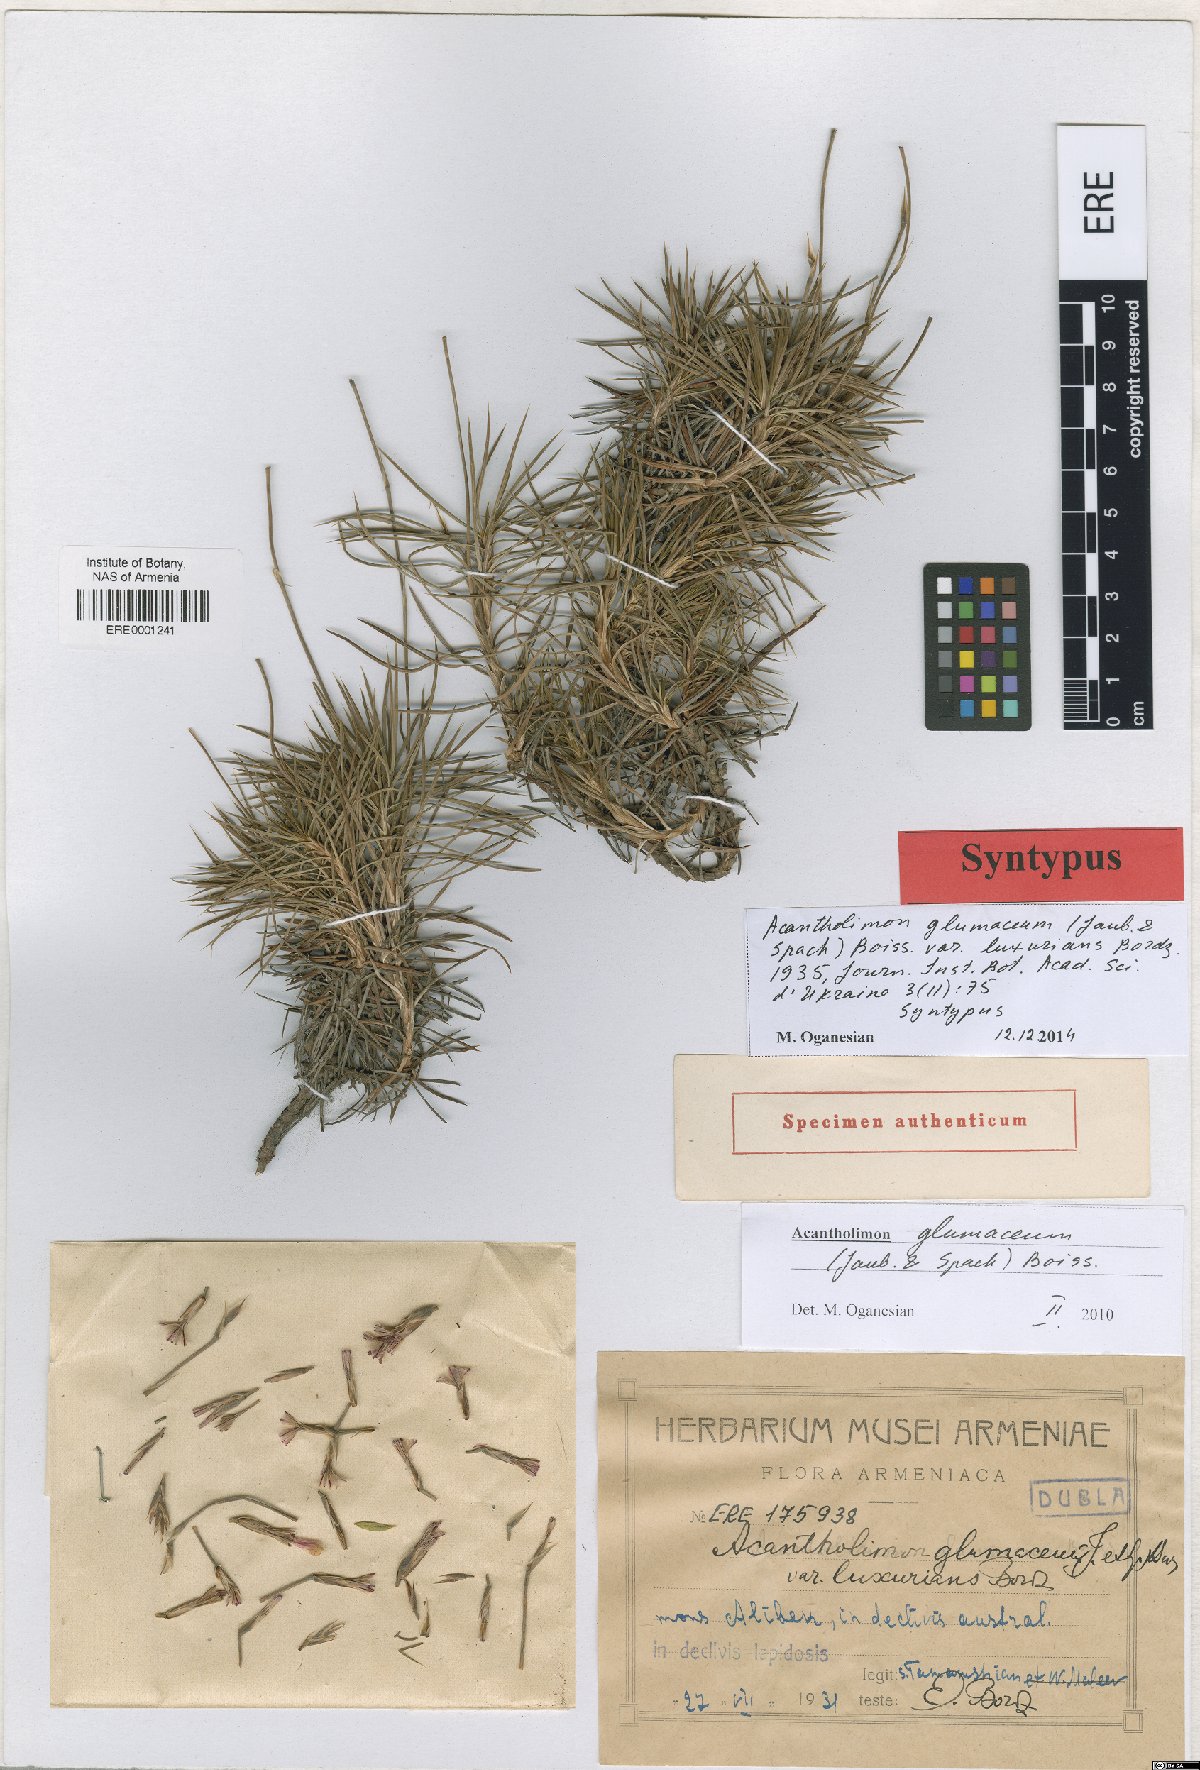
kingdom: Plantae
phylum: Tracheophyta
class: Magnoliopsida
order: Caryophyllales
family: Plumbaginaceae
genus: Acantholimon
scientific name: Acantholimon glumaceum
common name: Prickly-thrift
